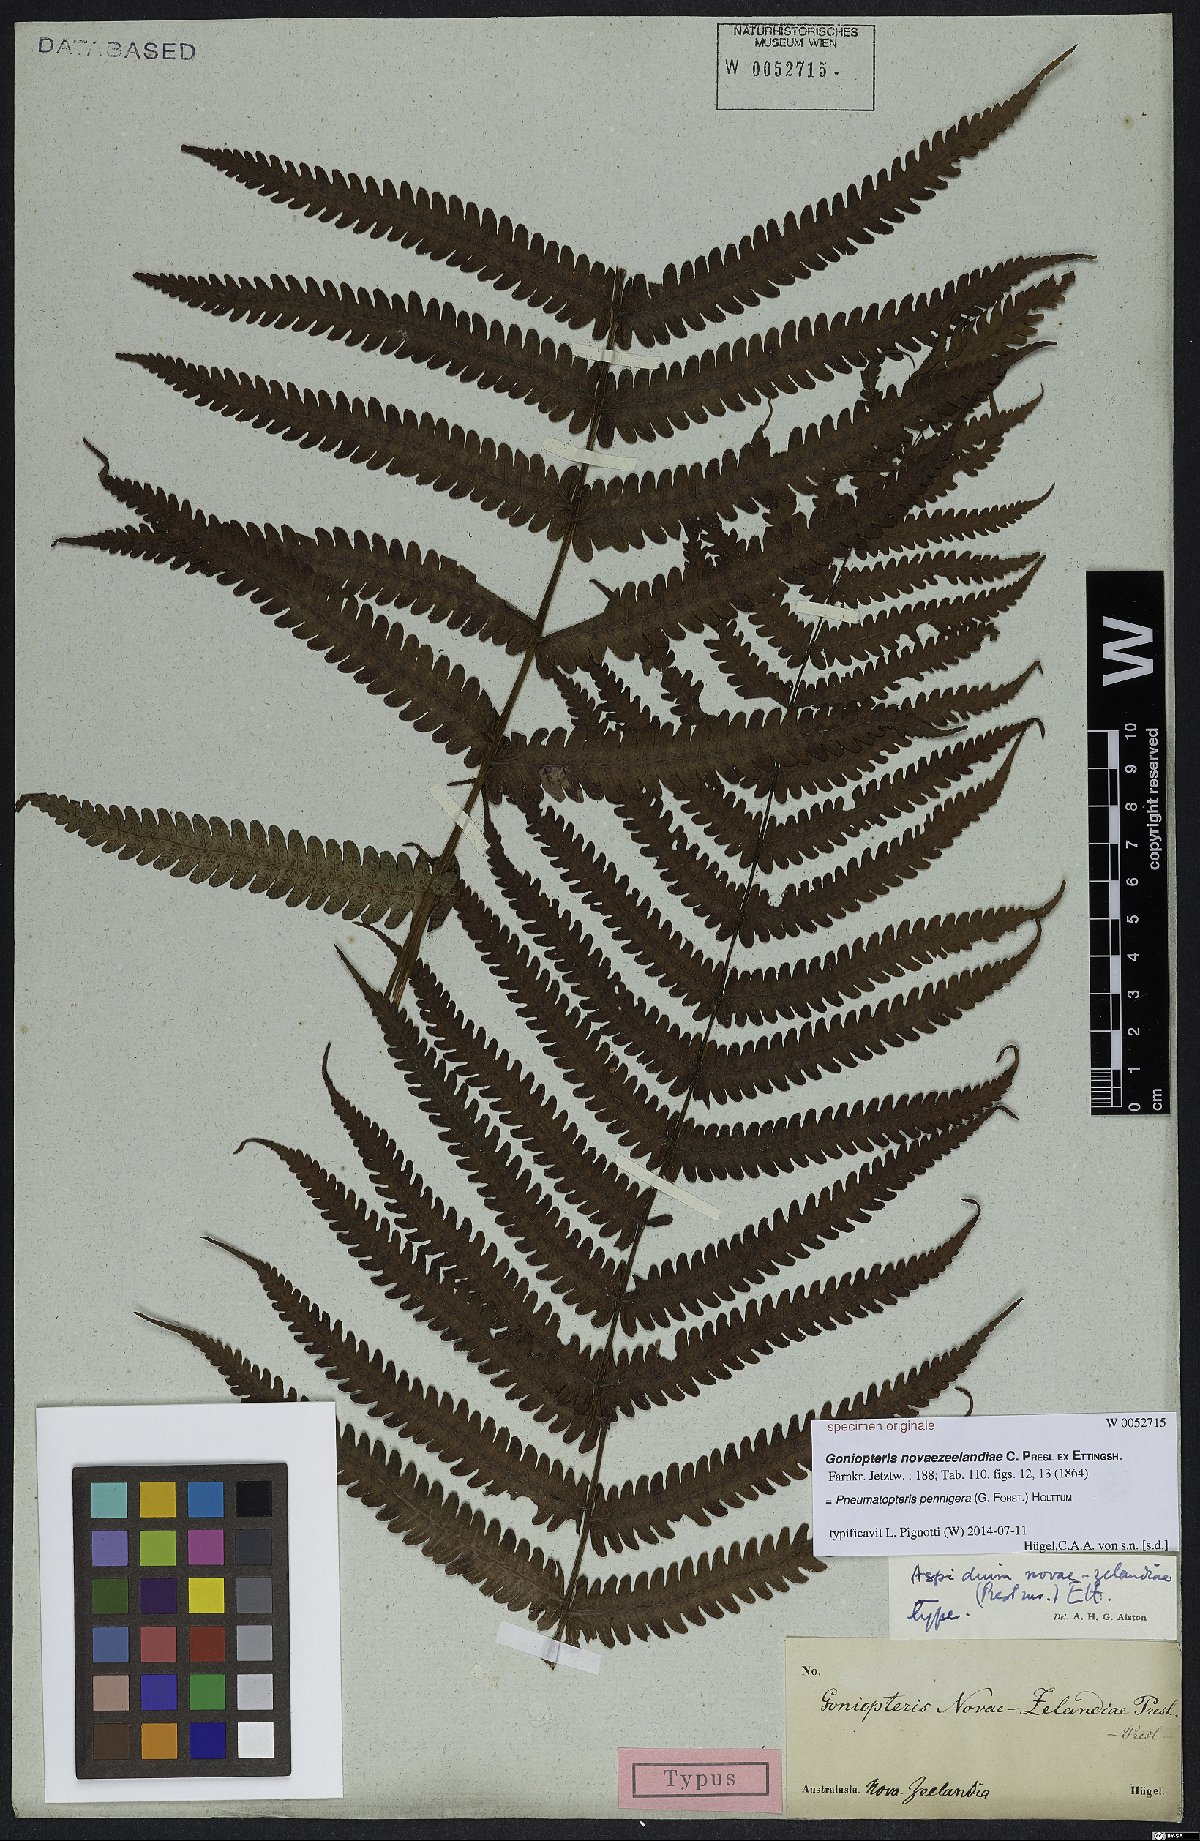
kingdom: Plantae
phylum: Tracheophyta
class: Polypodiopsida
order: Polypodiales
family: Thelypteridaceae
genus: Pakau
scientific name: Pakau pennigera
